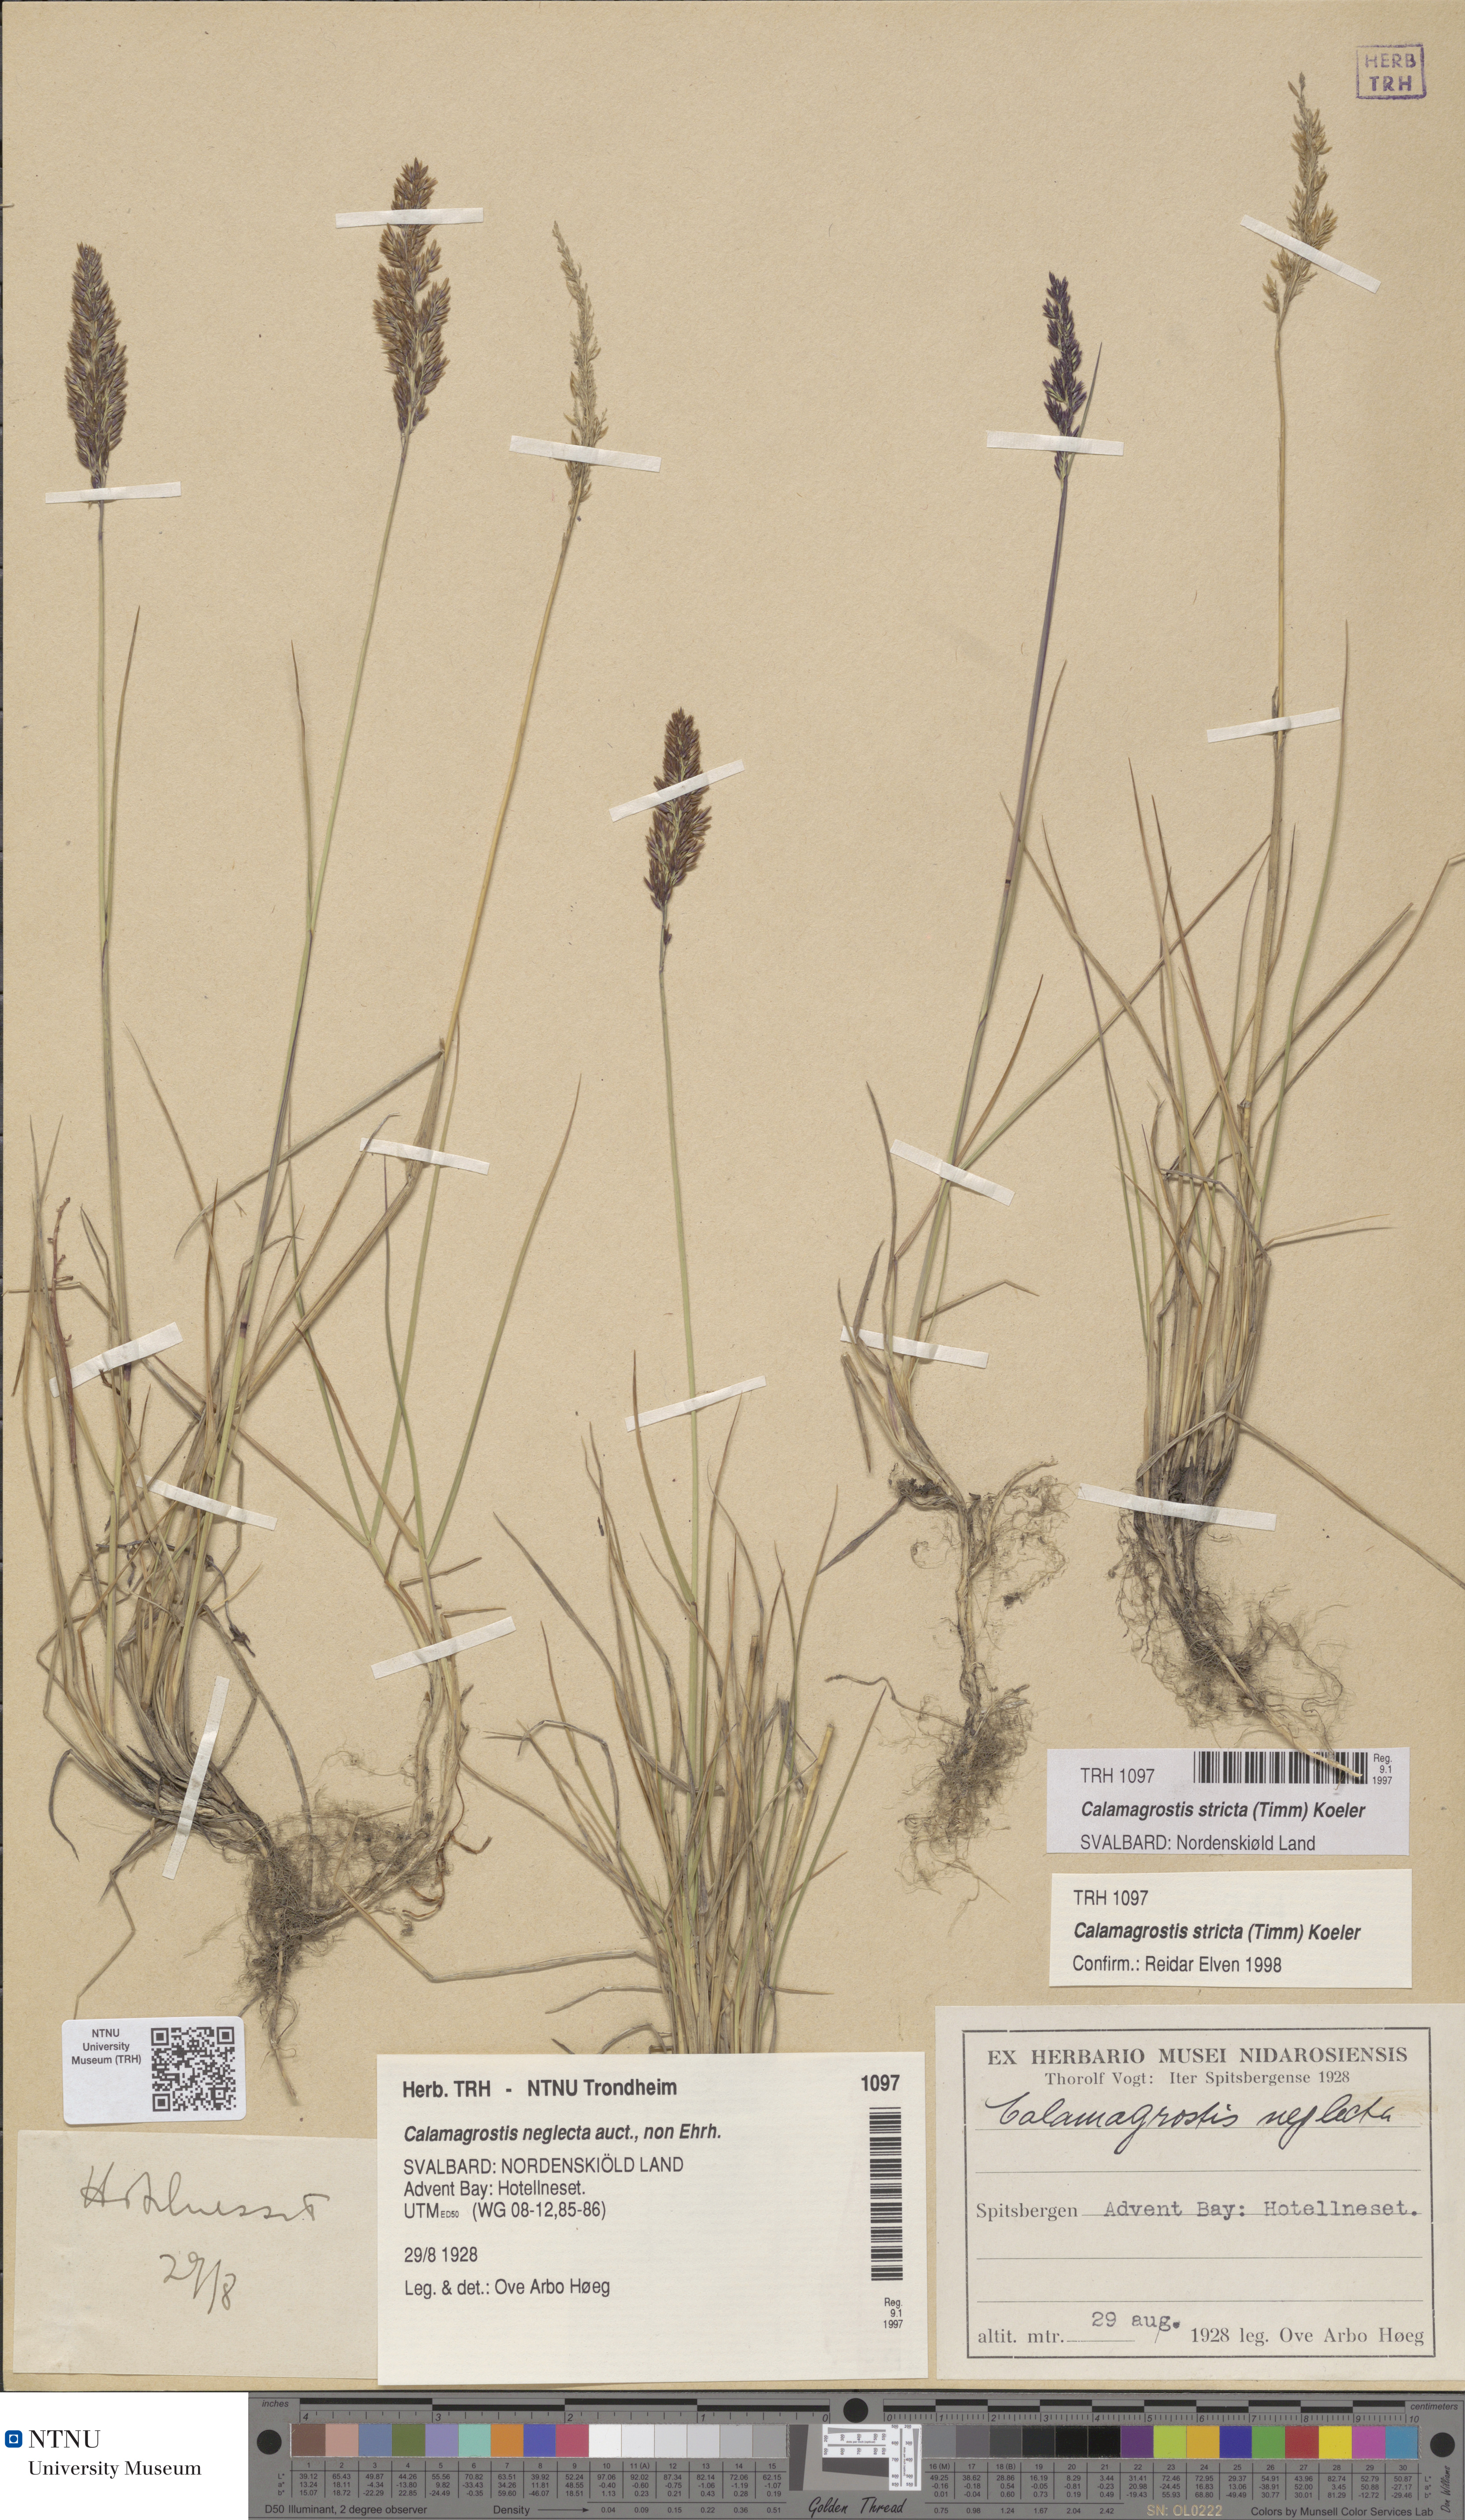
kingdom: Plantae
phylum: Tracheophyta
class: Liliopsida
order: Poales
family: Poaceae
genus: Achnatherum
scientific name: Achnatherum calamagrostis
